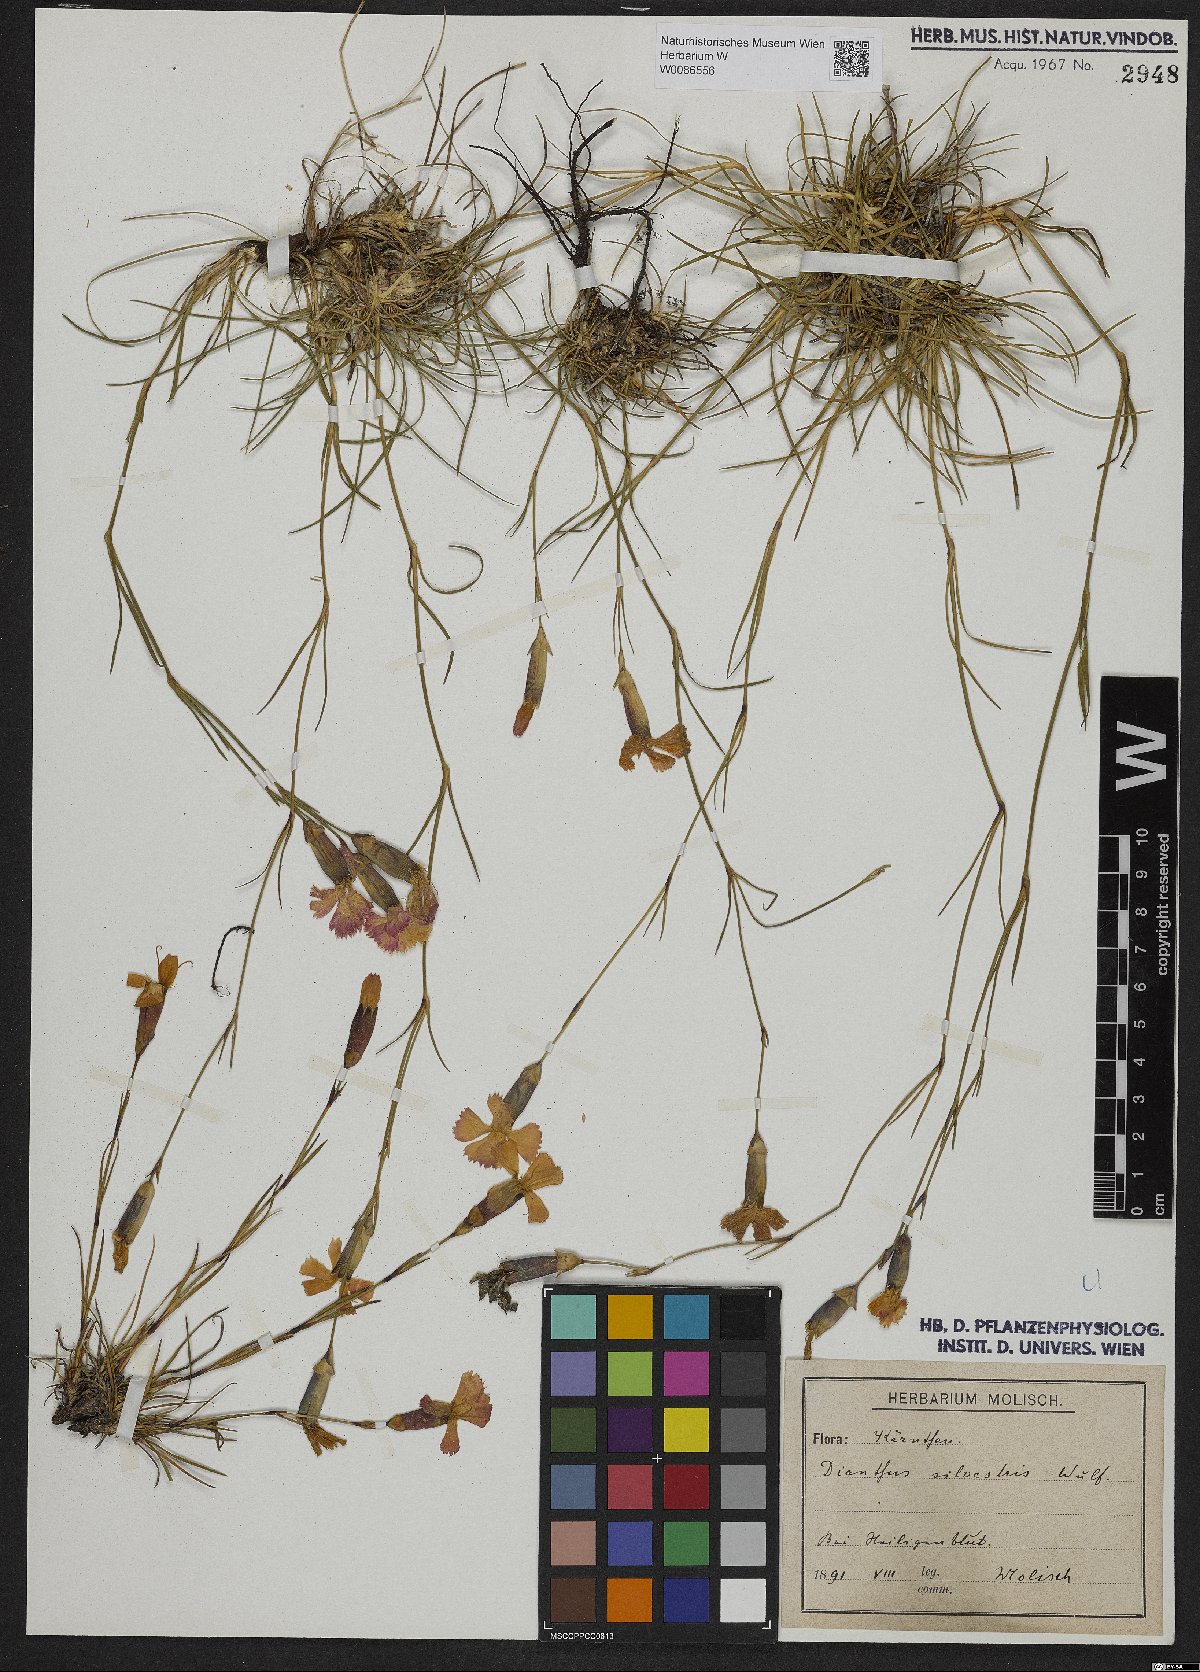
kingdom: Plantae
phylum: Tracheophyta
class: Magnoliopsida
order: Caryophyllales
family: Caryophyllaceae
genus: Dianthus
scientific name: Dianthus sylvestris
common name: Wood pink
